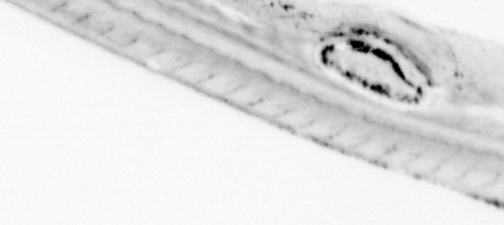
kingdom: Animalia
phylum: Chordata
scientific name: Chordata
